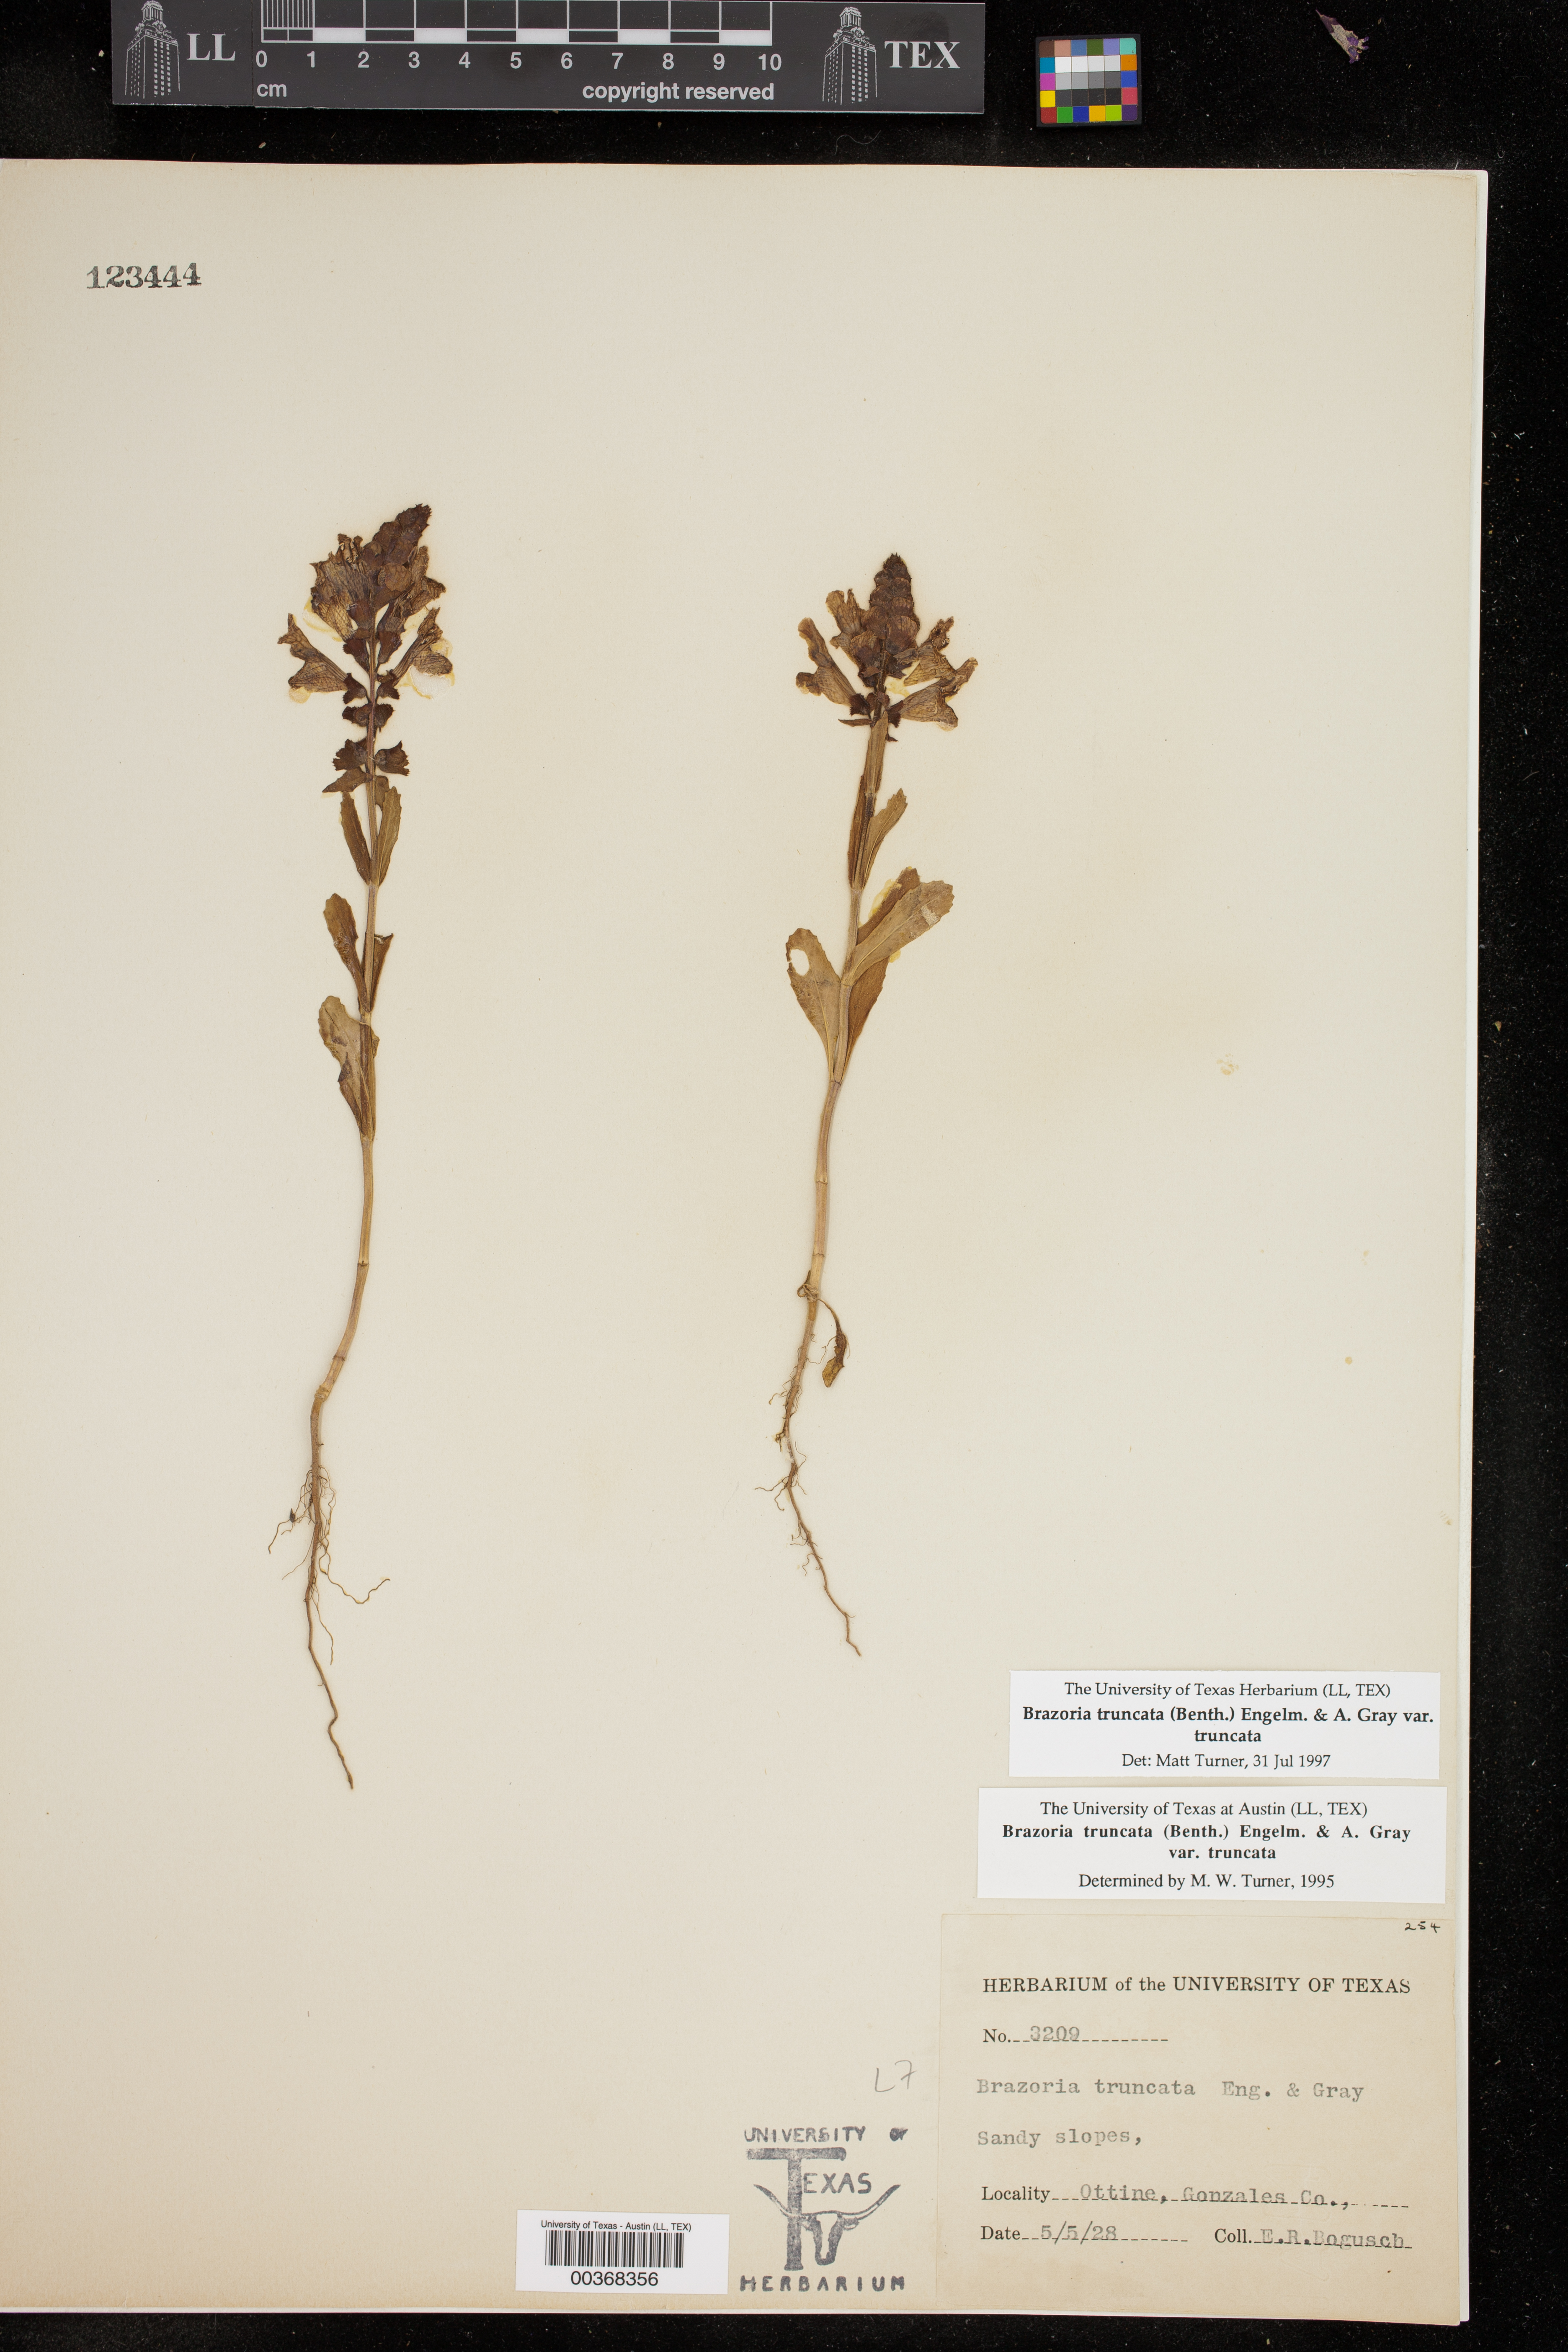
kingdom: Plantae
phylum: Tracheophyta
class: Magnoliopsida
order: Lamiales
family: Lamiaceae
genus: Brazoria
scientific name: Brazoria truncata
